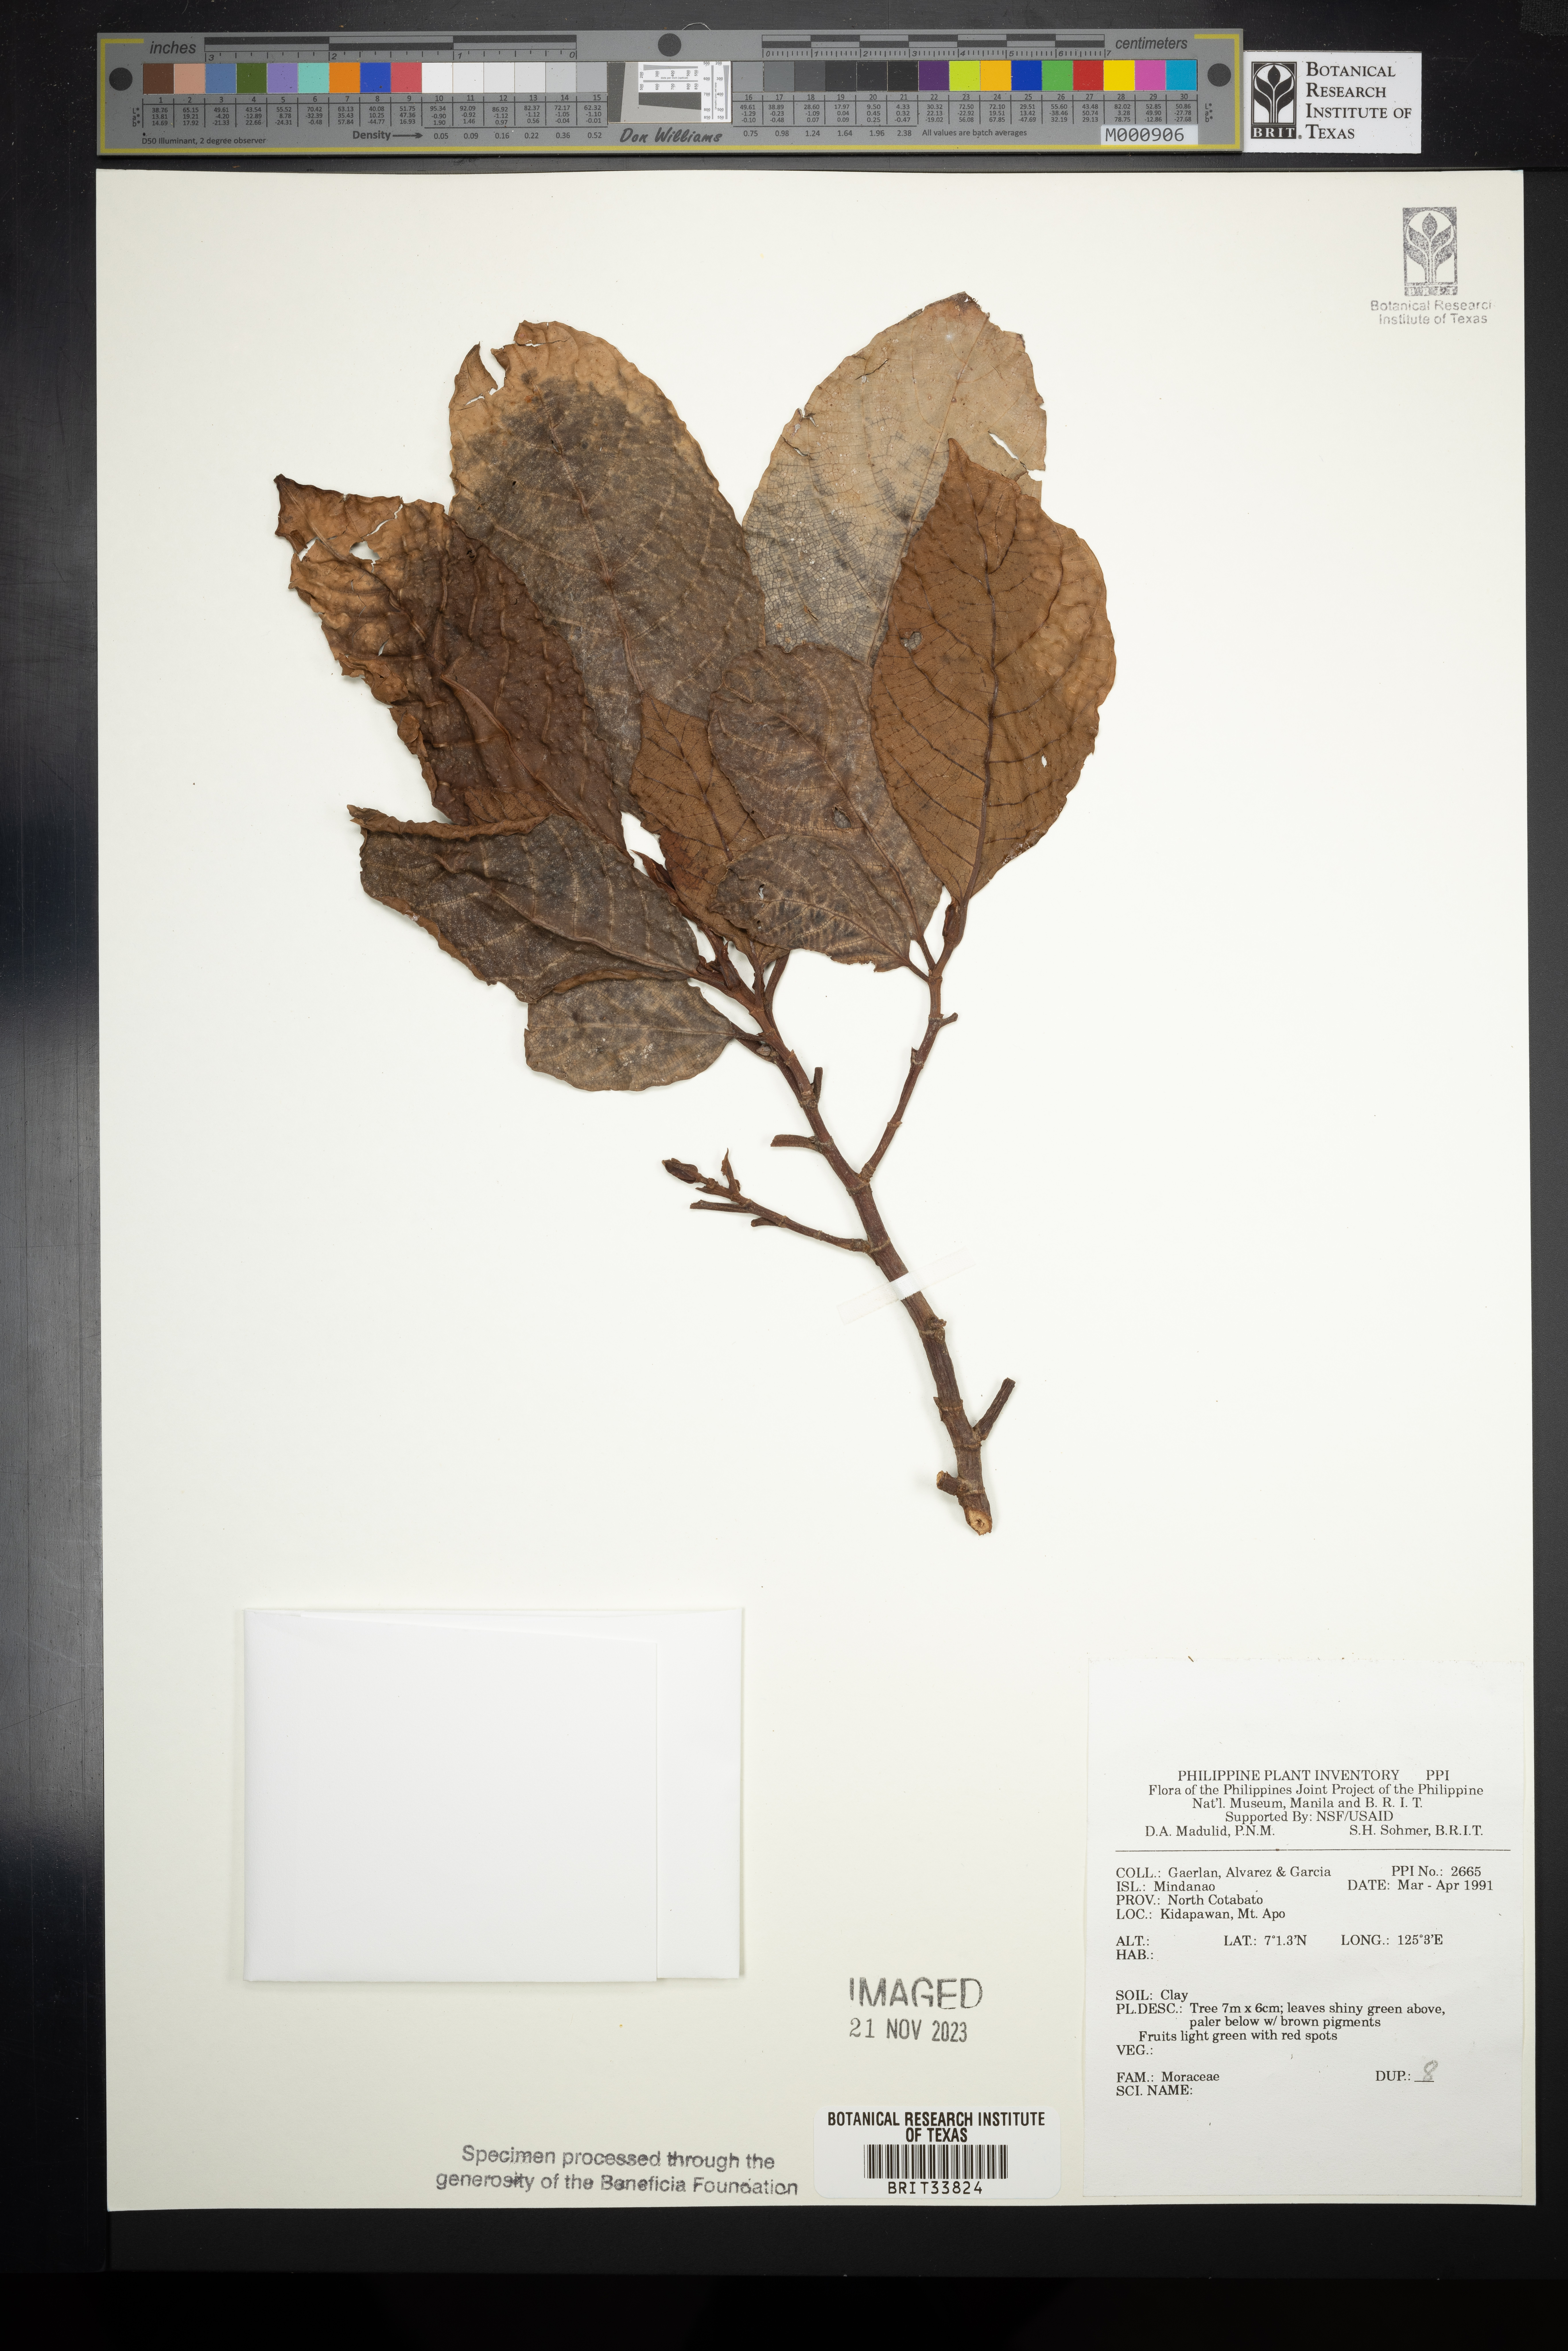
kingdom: Plantae
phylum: Tracheophyta
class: Magnoliopsida
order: Rosales
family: Moraceae
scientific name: Moraceae
